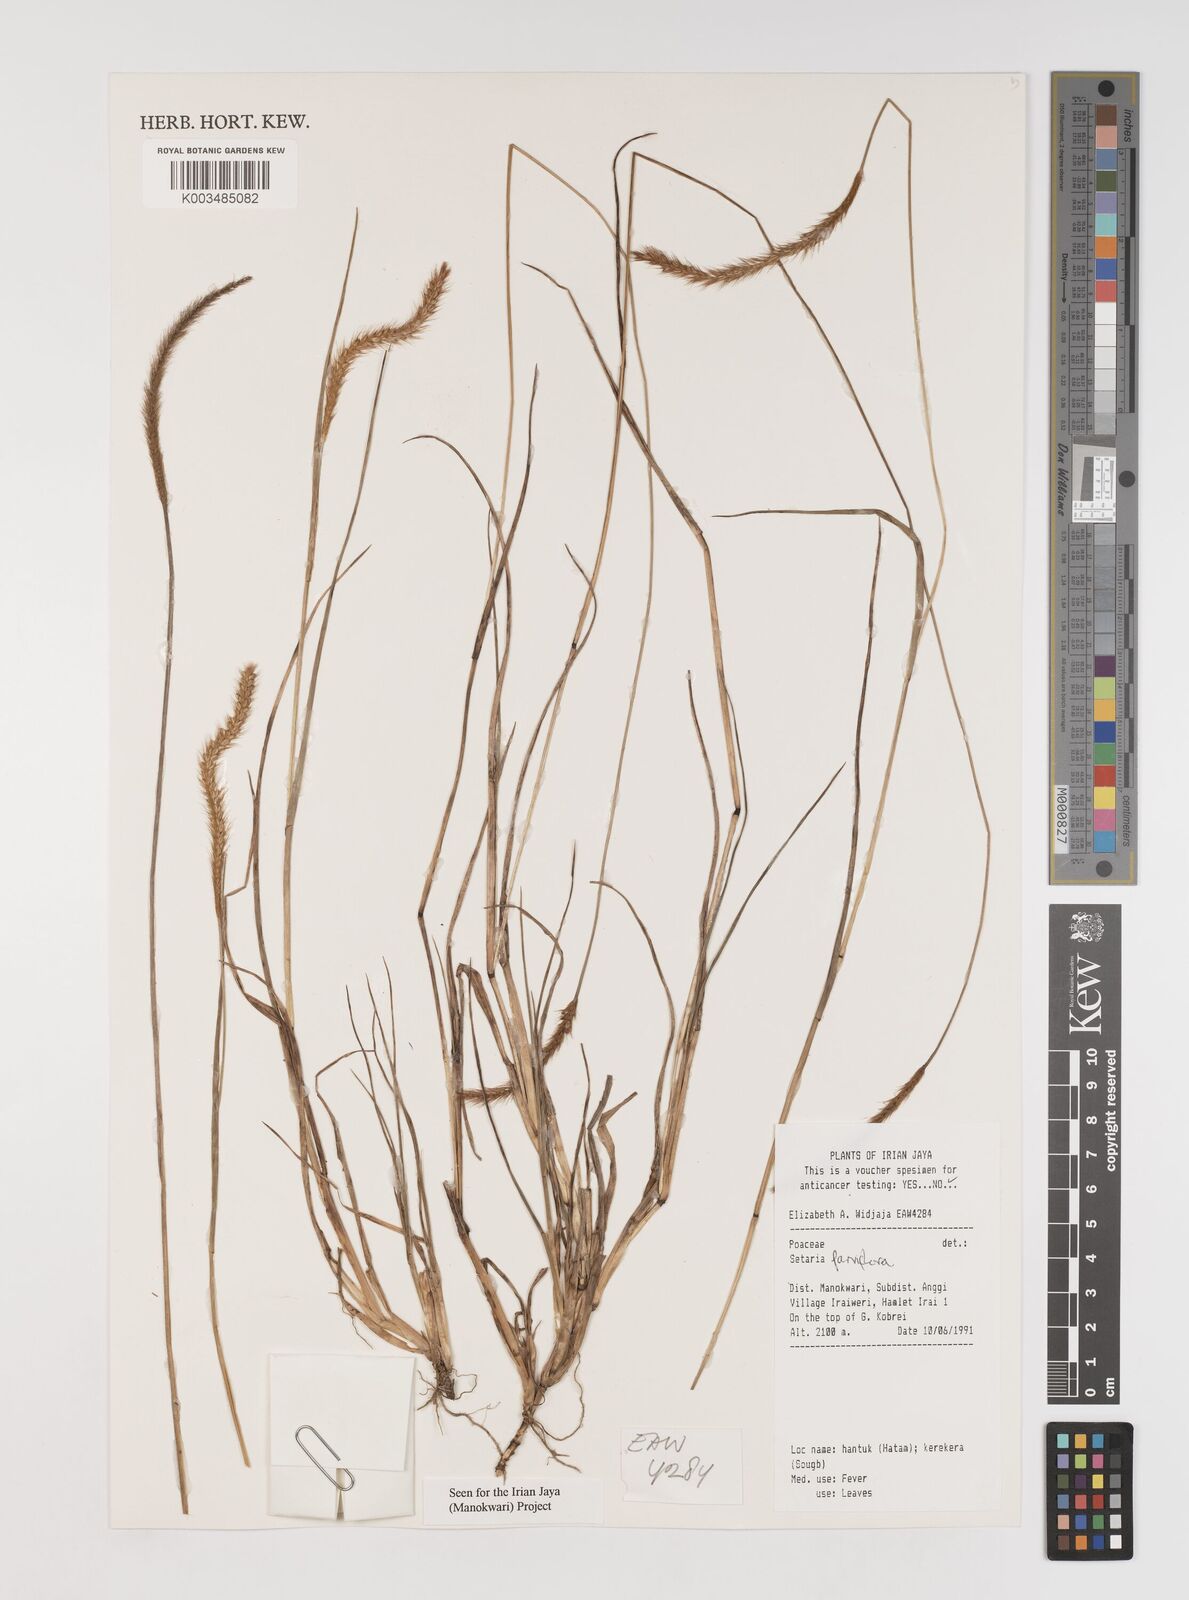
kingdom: Plantae
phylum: Tracheophyta
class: Liliopsida
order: Poales
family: Poaceae
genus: Setaria
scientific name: Setaria parviflora
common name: Knotroot bristle-grass
